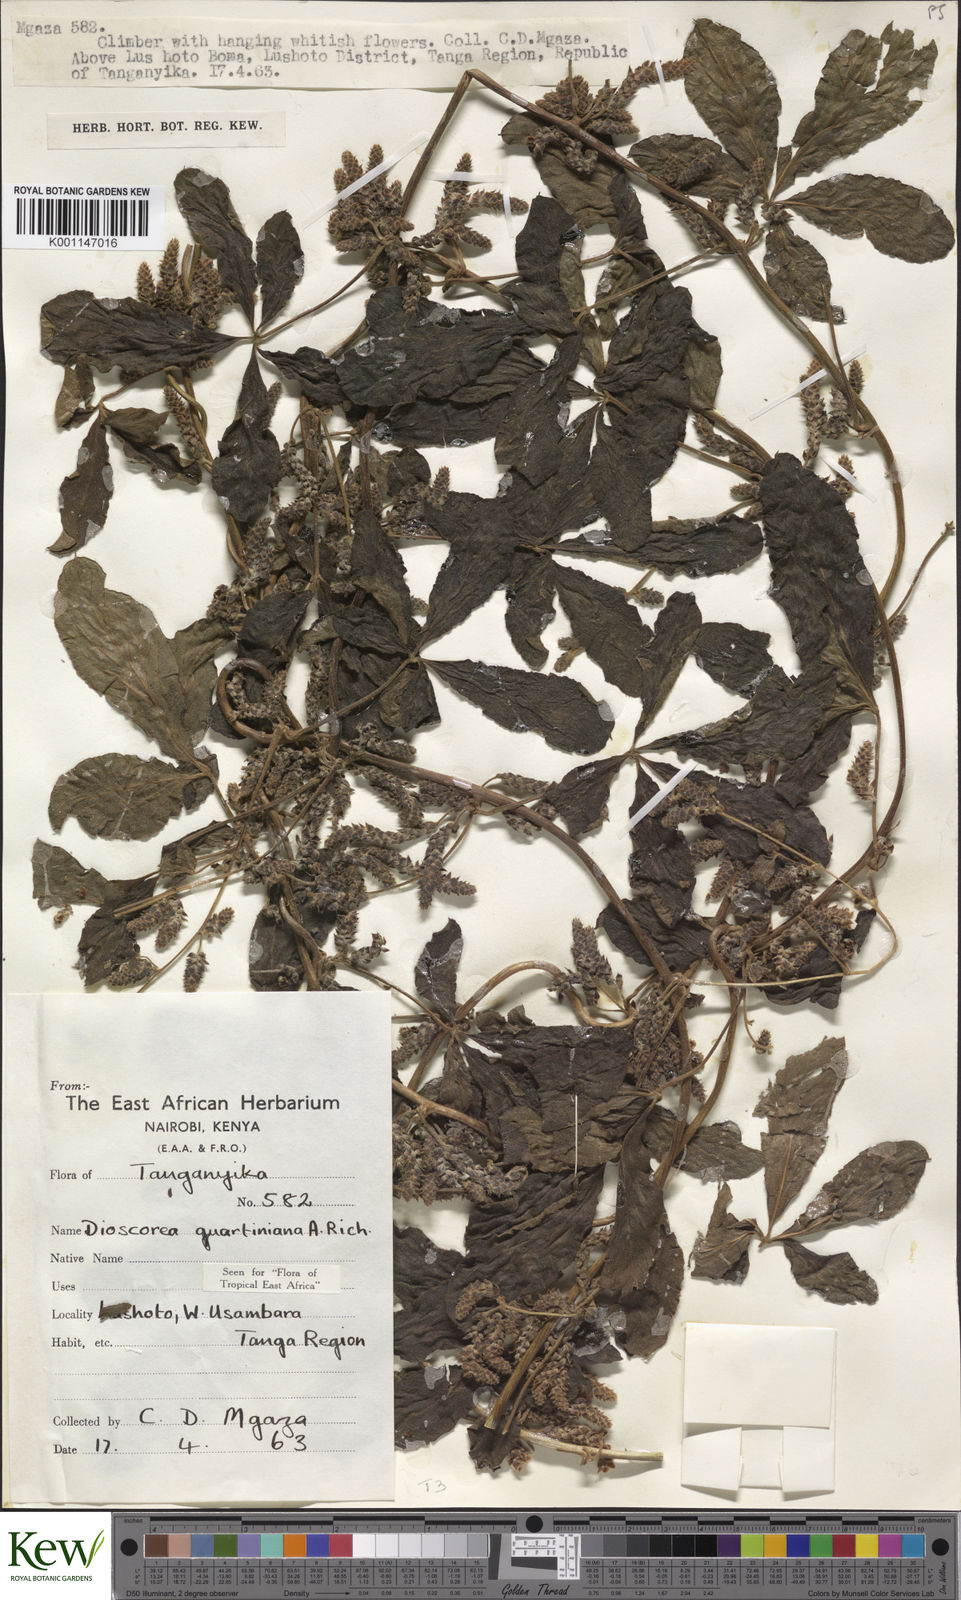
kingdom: Plantae
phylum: Tracheophyta
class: Liliopsida
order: Dioscoreales
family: Dioscoreaceae
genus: Dioscorea
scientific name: Dioscorea quartiniana
